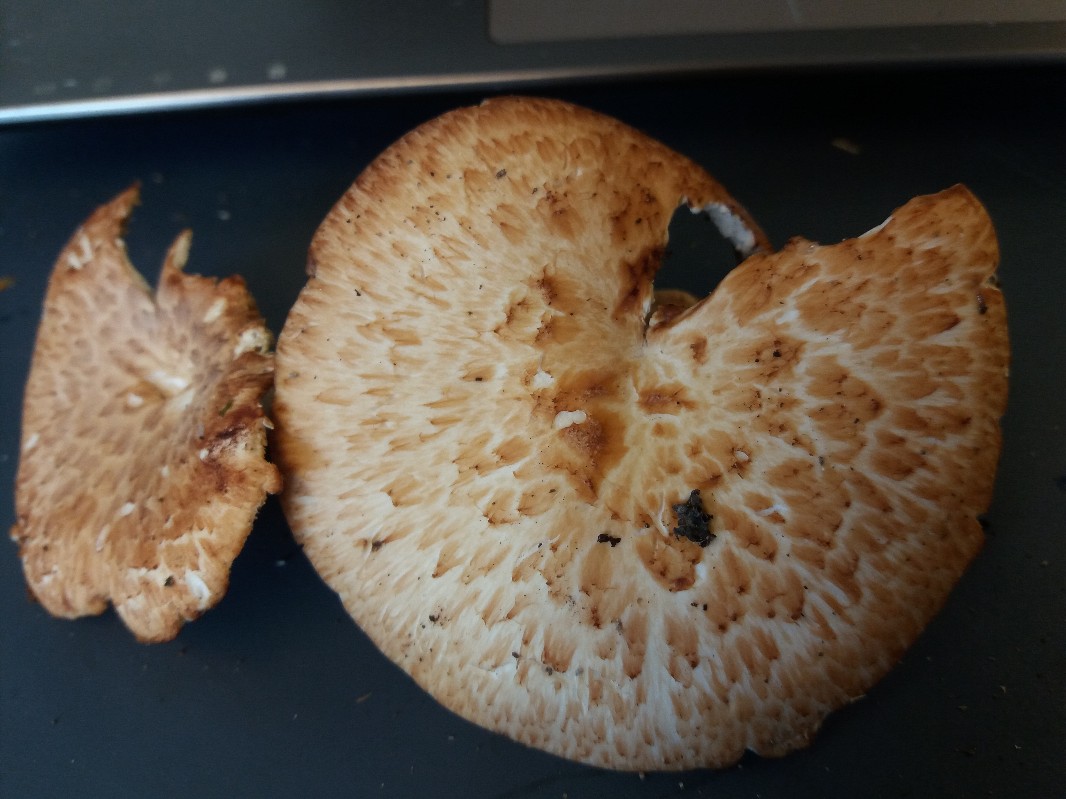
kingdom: Fungi
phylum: Basidiomycota
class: Agaricomycetes
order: Polyporales
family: Polyporaceae
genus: Polyporus
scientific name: Polyporus tuberaster
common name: knoldet stilkporesvamp
